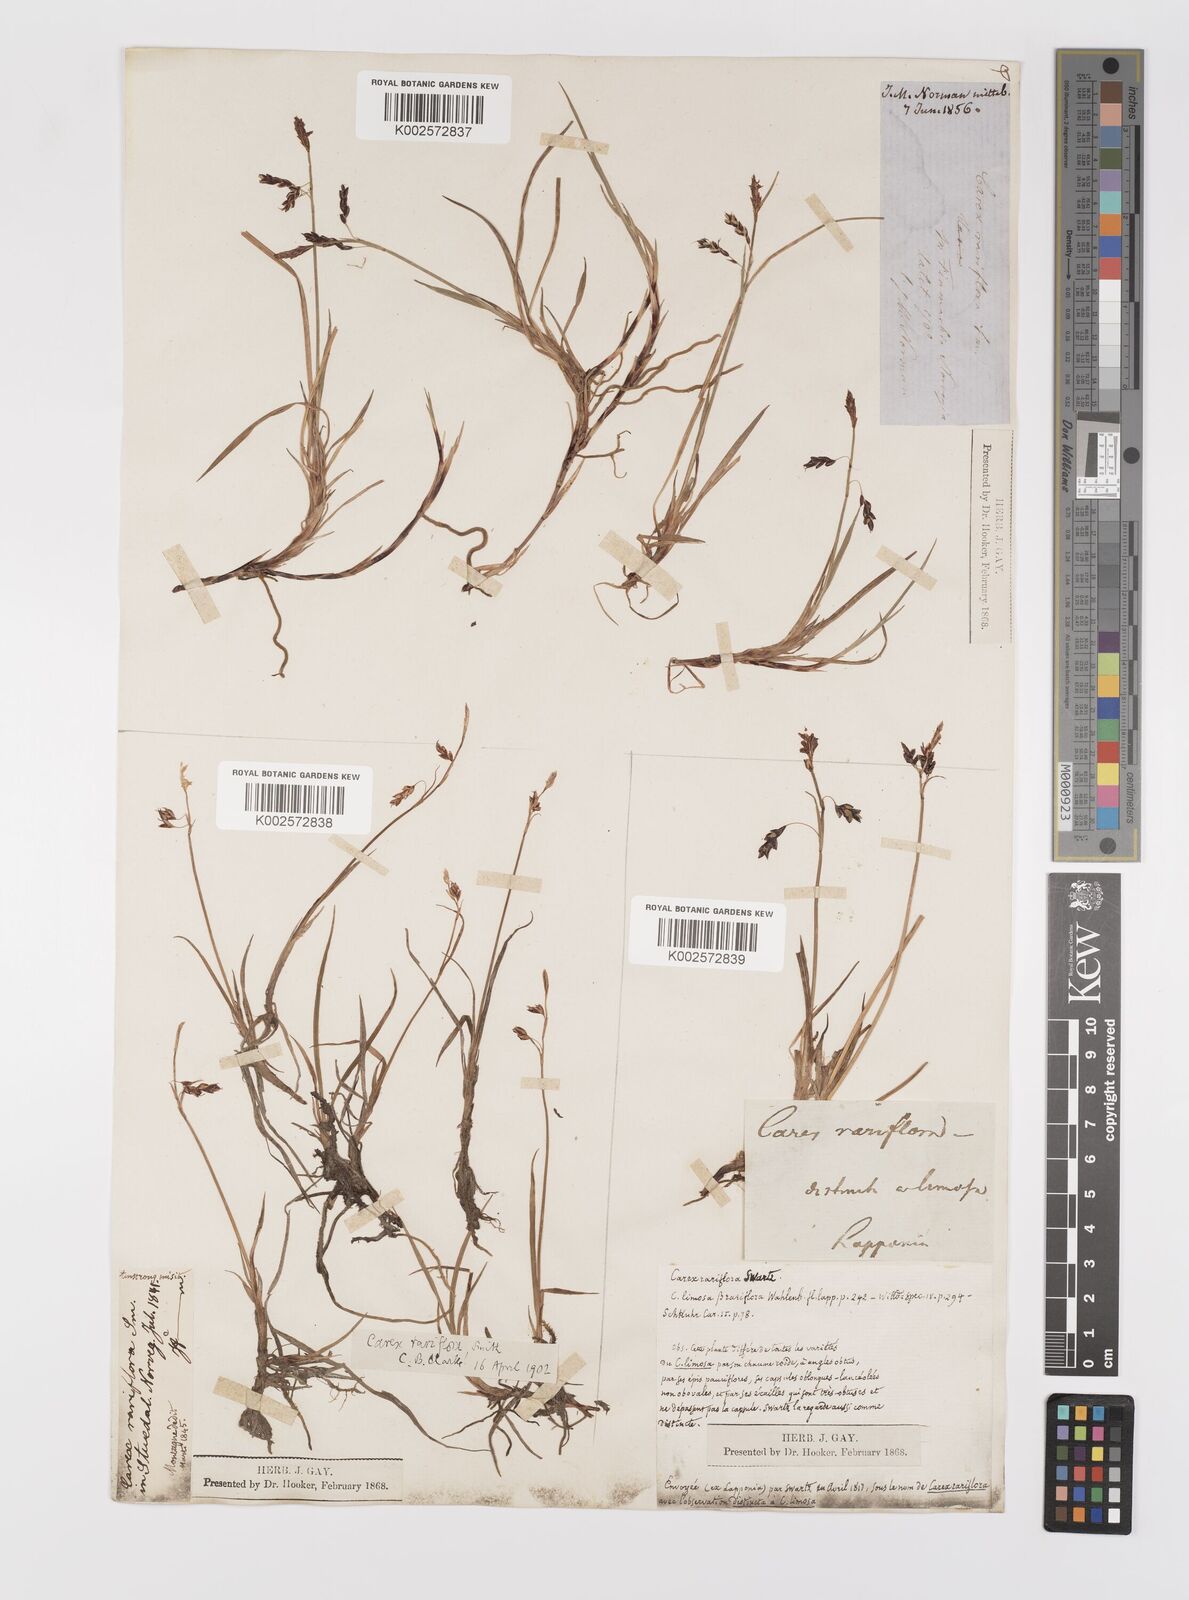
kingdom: Plantae
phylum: Tracheophyta
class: Liliopsida
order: Poales
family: Cyperaceae
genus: Carex
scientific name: Carex rariflora
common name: Loose-flowered alpine sedge
